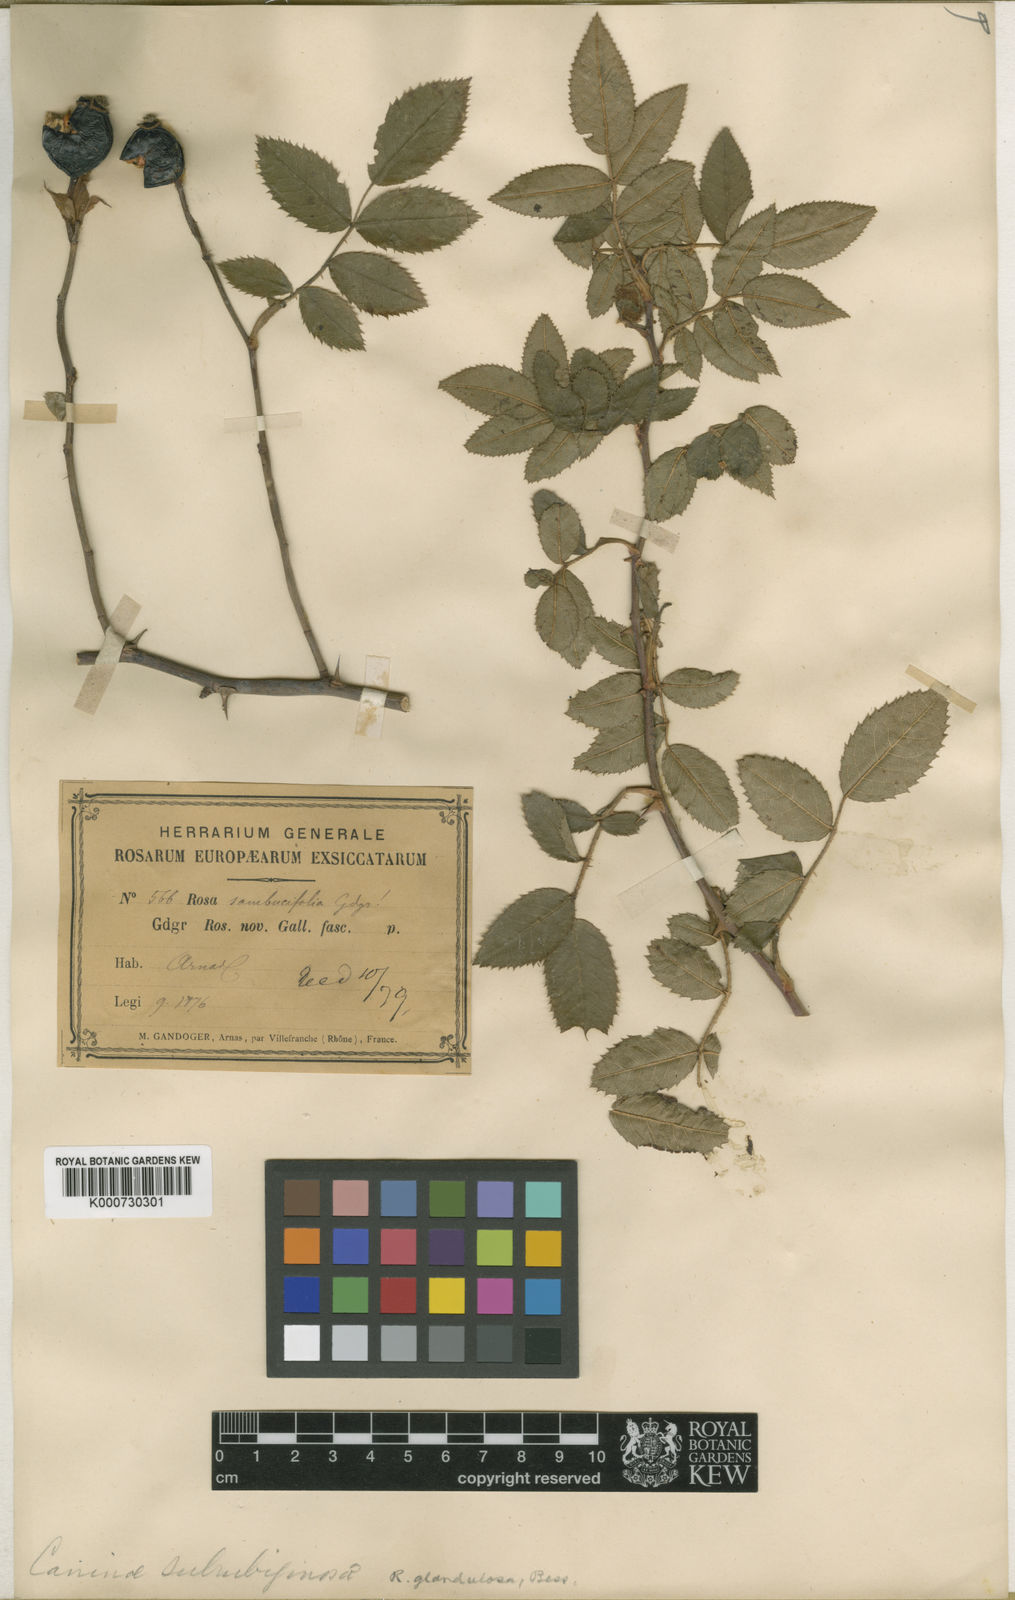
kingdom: Plantae
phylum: Tracheophyta
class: Magnoliopsida
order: Rosales
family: Rosaceae
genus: Rosa
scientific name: Rosa marginata
